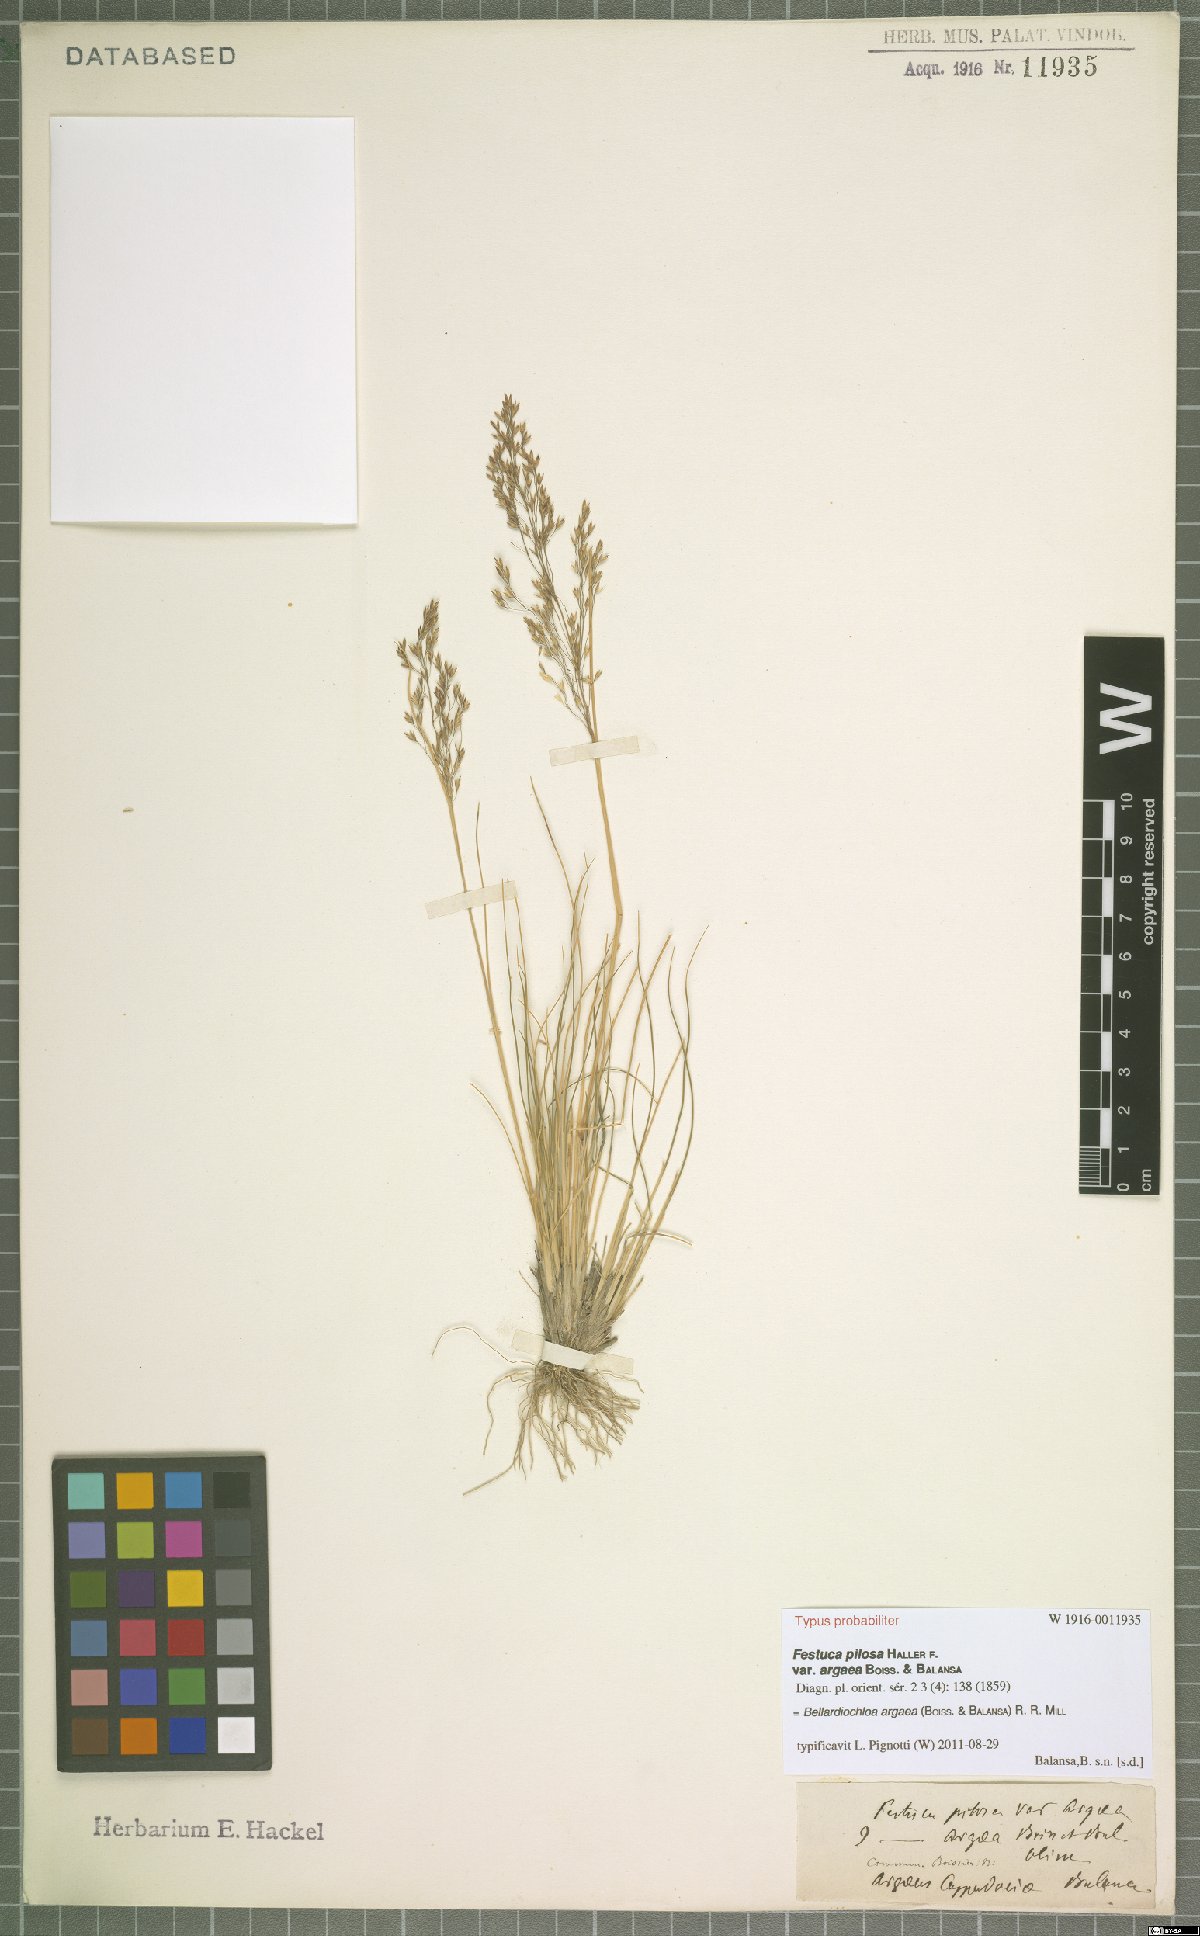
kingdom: Plantae
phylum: Tracheophyta
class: Liliopsida
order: Poales
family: Poaceae
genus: Bellardiochloa
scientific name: Bellardiochloa argaea
